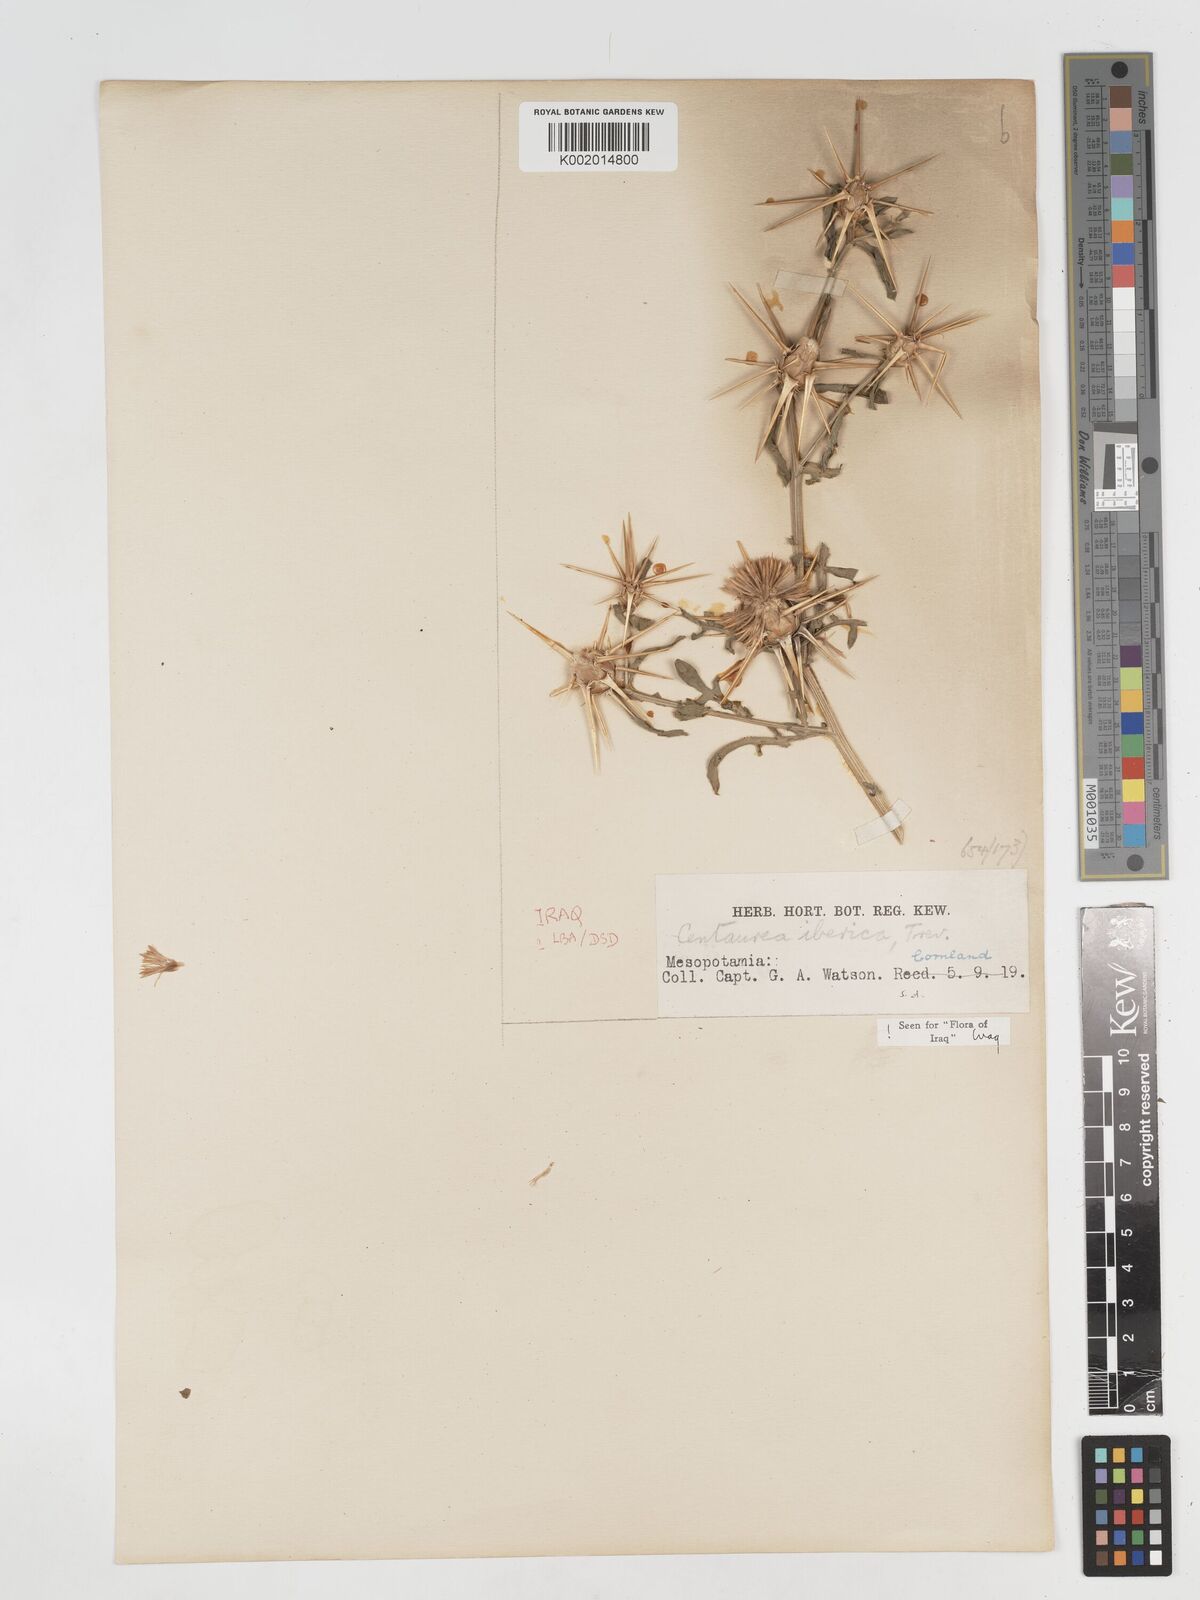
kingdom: Plantae
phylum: Tracheophyta
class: Magnoliopsida
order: Asterales
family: Asteraceae
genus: Centaurea
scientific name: Centaurea iberica
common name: Iberian knapweed
